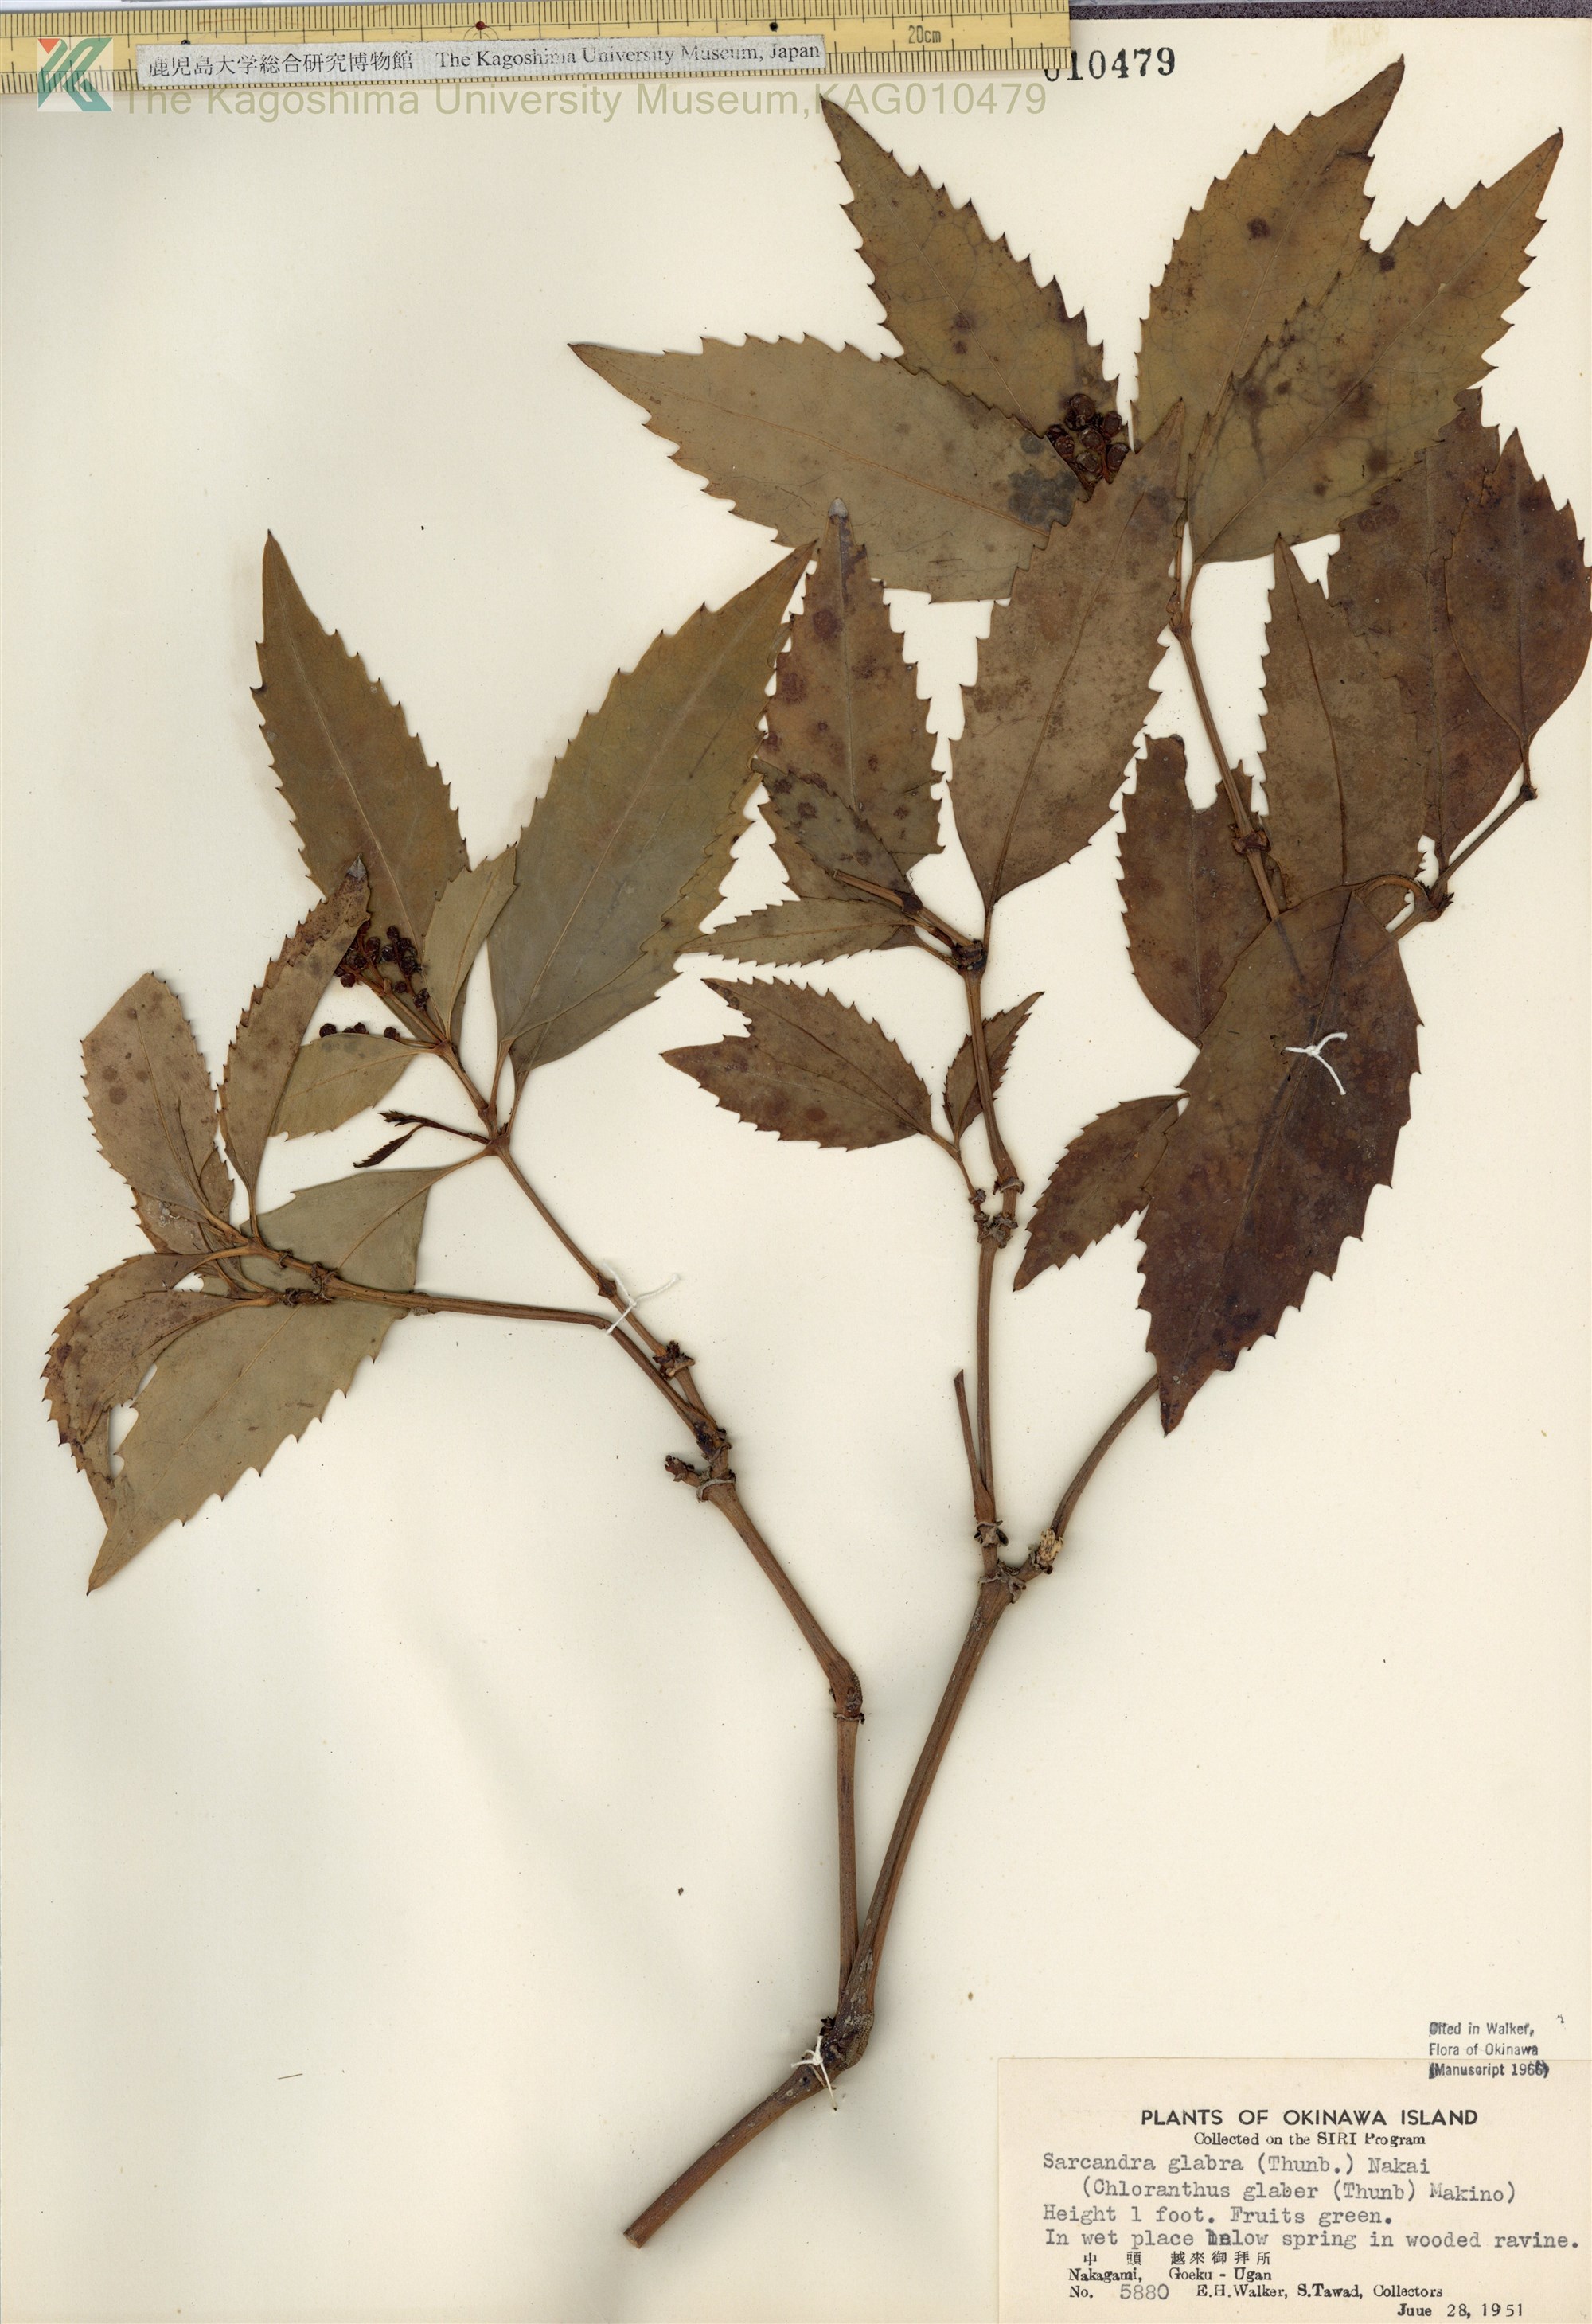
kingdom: Plantae
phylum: Tracheophyta
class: Magnoliopsida
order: Chloranthales
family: Chloranthaceae
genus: Sarcandra
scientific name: Sarcandra glabra
